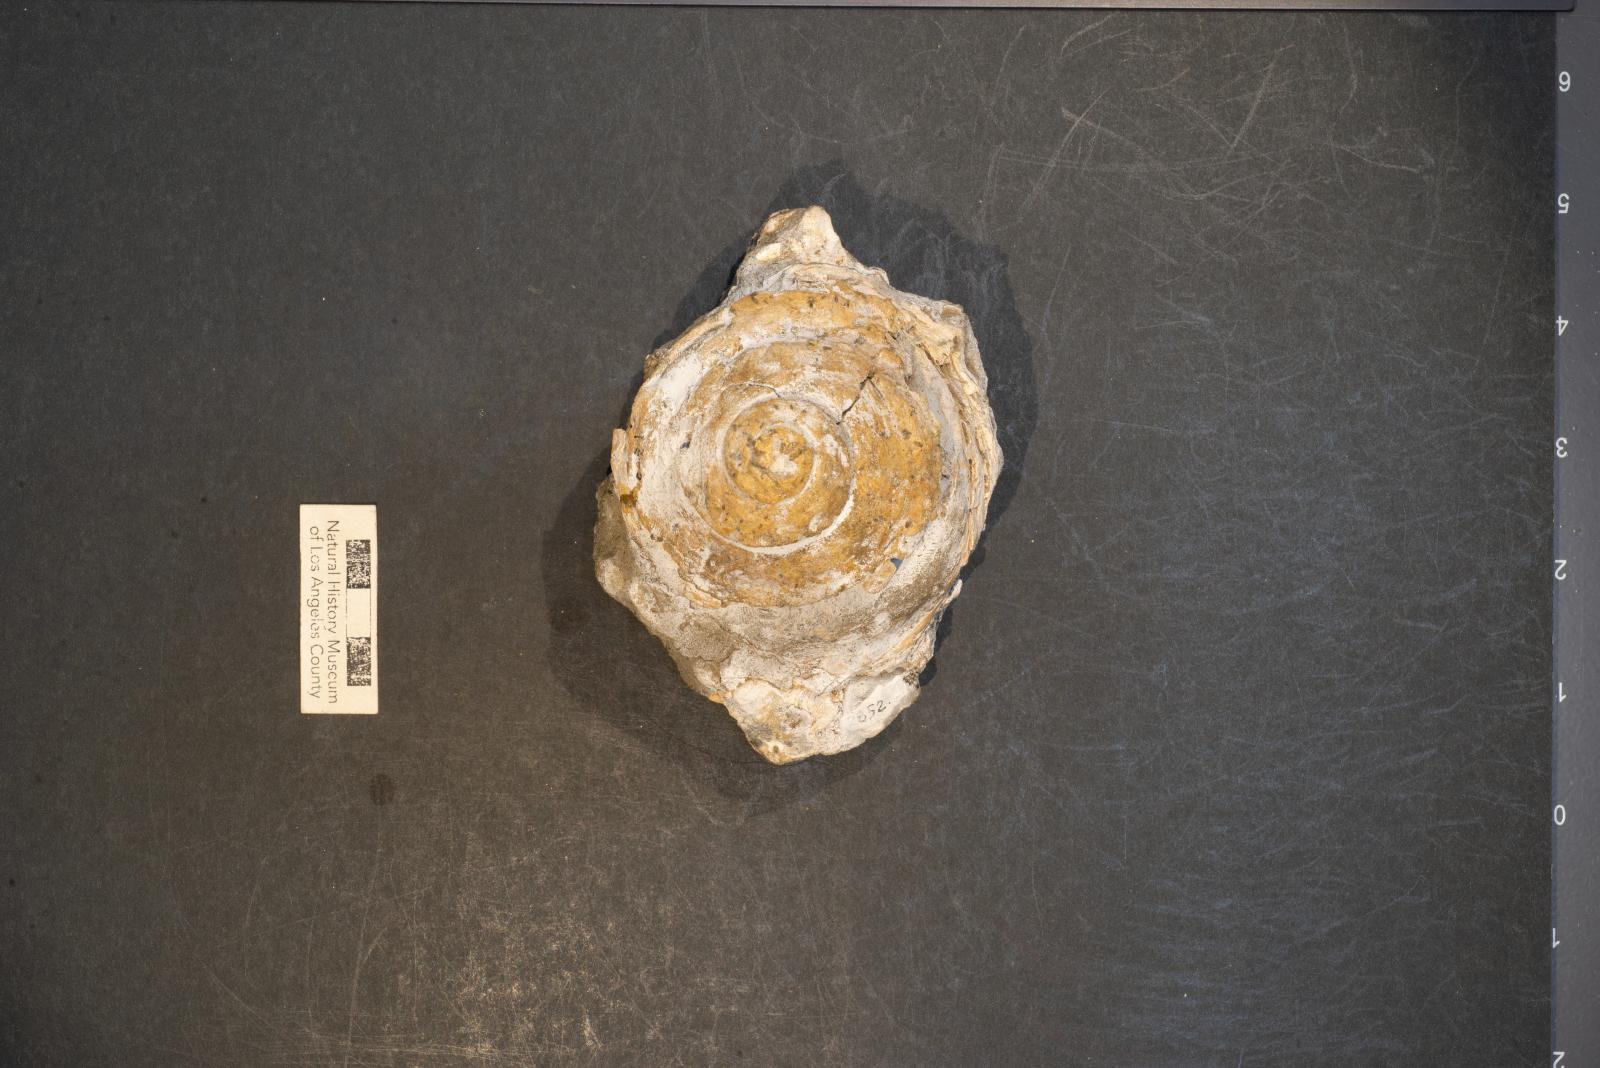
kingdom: Animalia
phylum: Mollusca
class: Gastropoda
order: Littorinimorpha
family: Xenophoridae
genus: Xenophora
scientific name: Xenophora hermax
